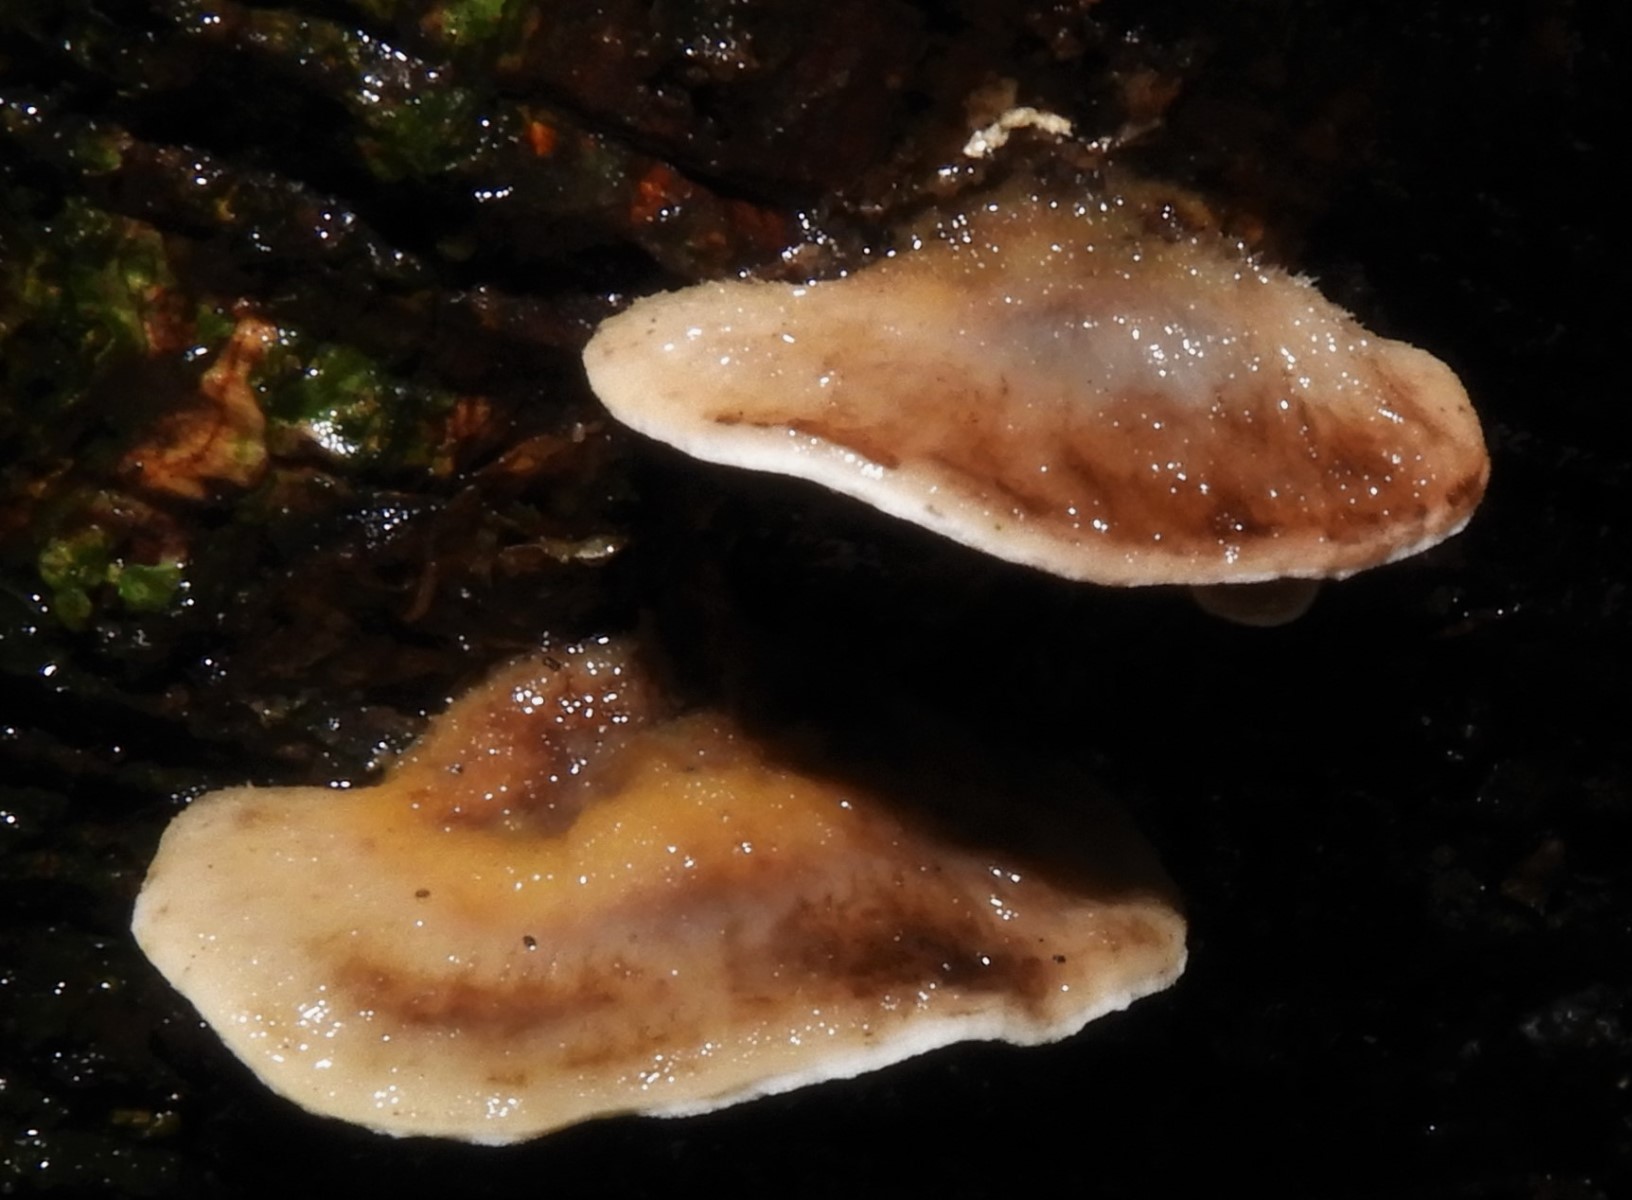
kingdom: Fungi
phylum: Basidiomycota
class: Agaricomycetes
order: Polyporales
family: Phanerochaetaceae
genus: Bjerkandera
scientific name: Bjerkandera adusta
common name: sveden sodporesvamp
